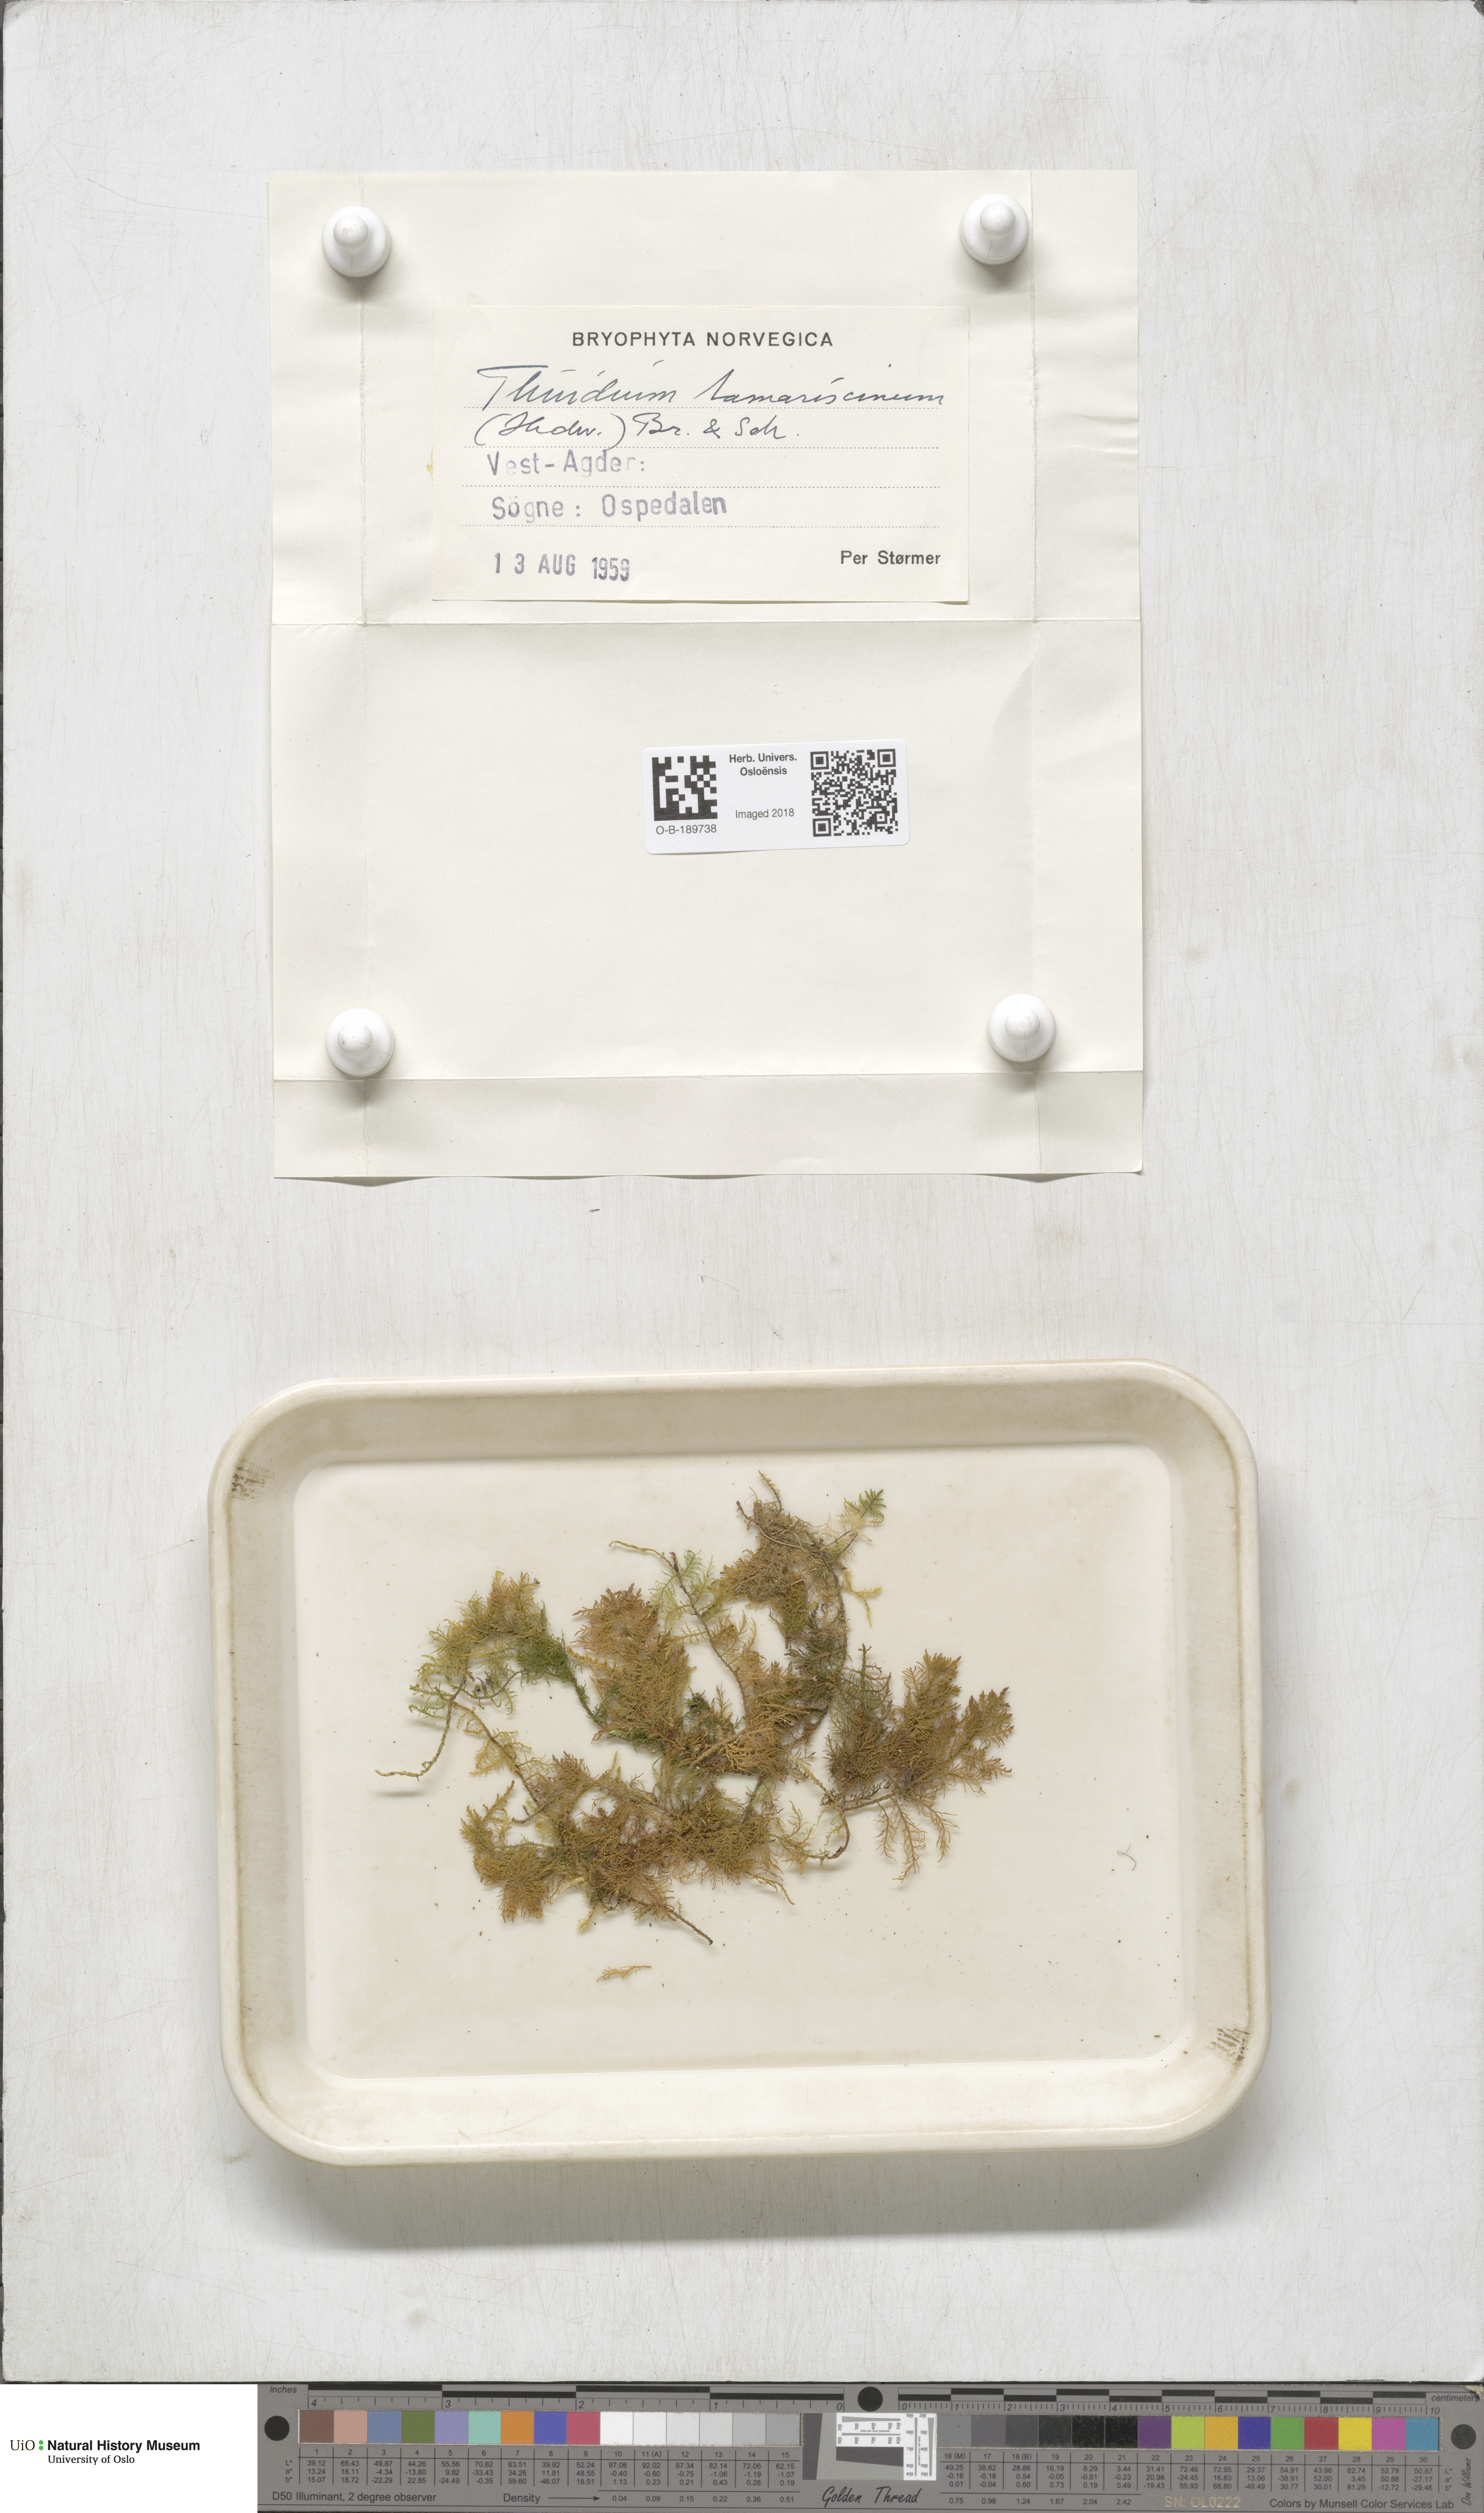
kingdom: Plantae
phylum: Bryophyta
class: Bryopsida
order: Hypnales
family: Thuidiaceae
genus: Thuidium
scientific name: Thuidium tamariscinum
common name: Common tamarisk-moss
